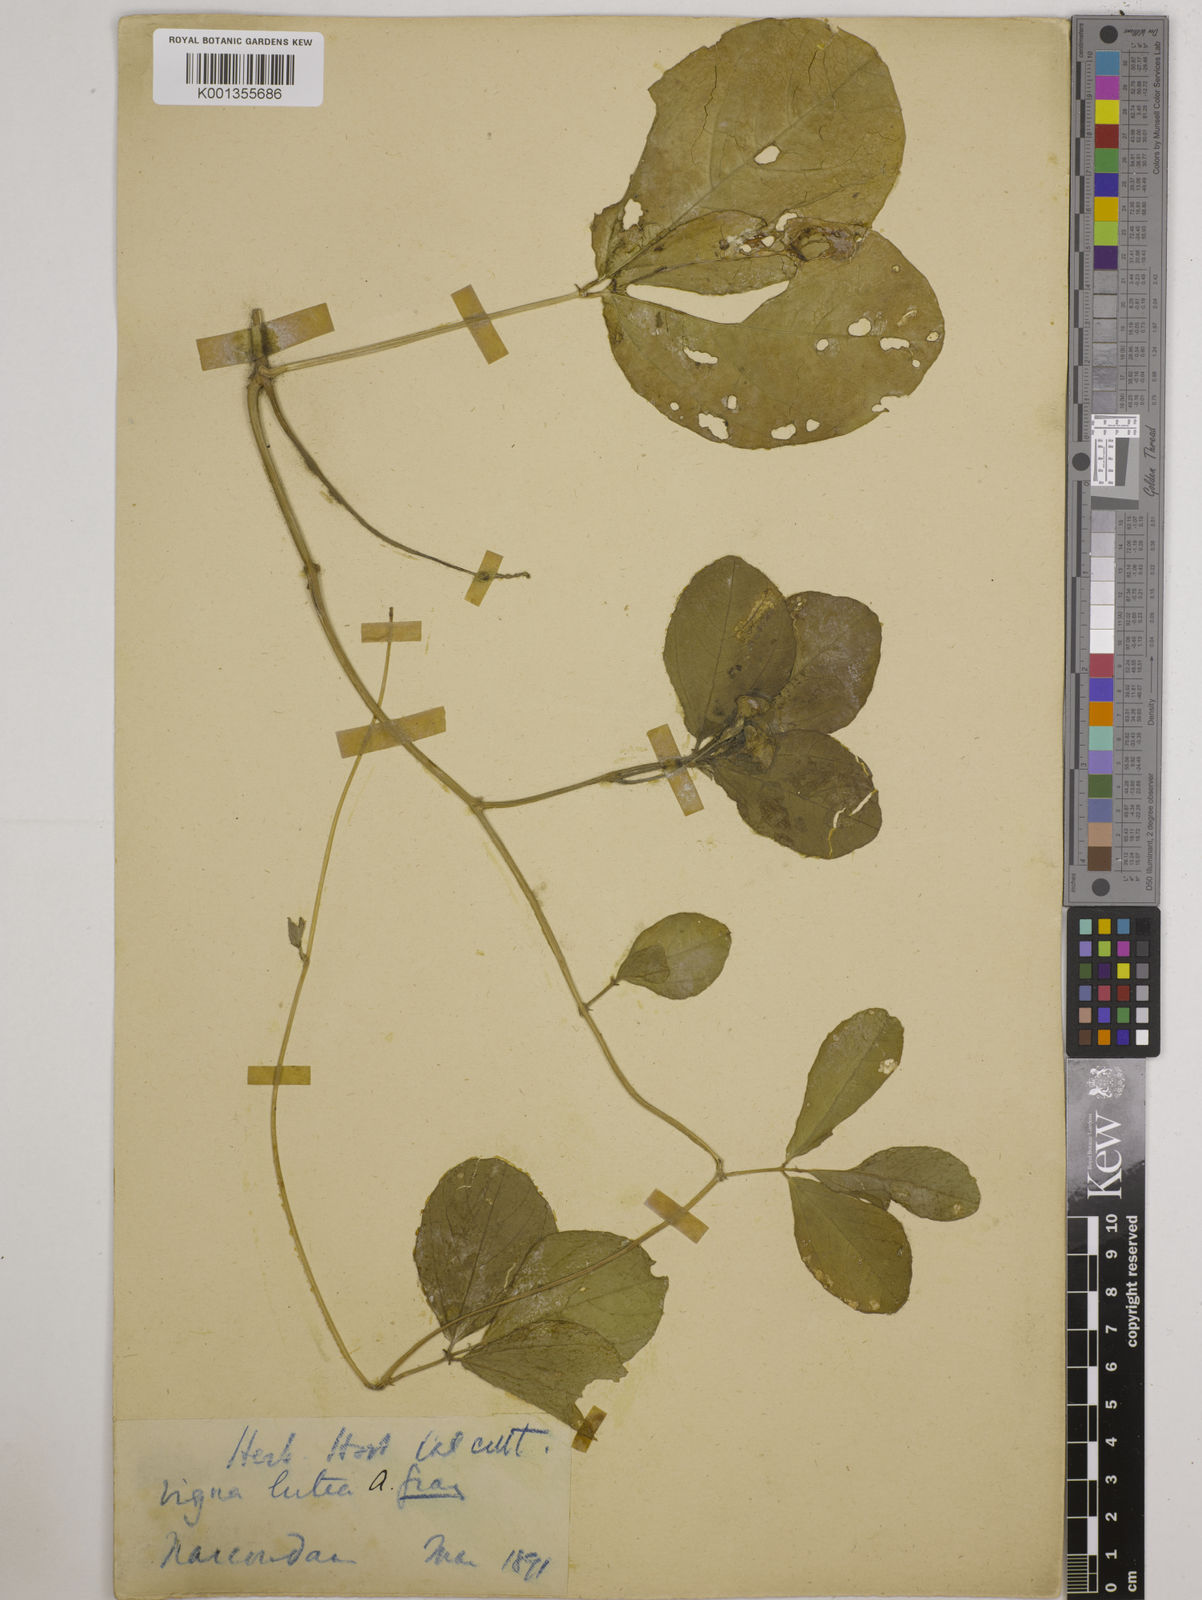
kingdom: Plantae
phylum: Tracheophyta
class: Magnoliopsida
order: Fabales
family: Fabaceae
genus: Vigna
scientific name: Vigna marina
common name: Dune-bean
